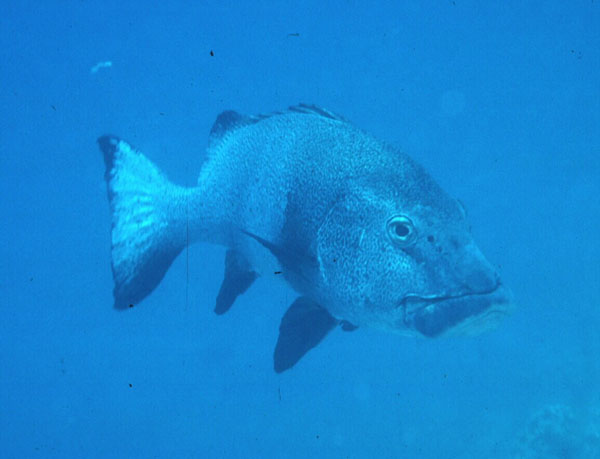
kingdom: Animalia
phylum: Chordata
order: Perciformes
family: Haemulidae
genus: Plectorhinchus
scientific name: Plectorhinchus albovittatus
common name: Giant sweetlips
